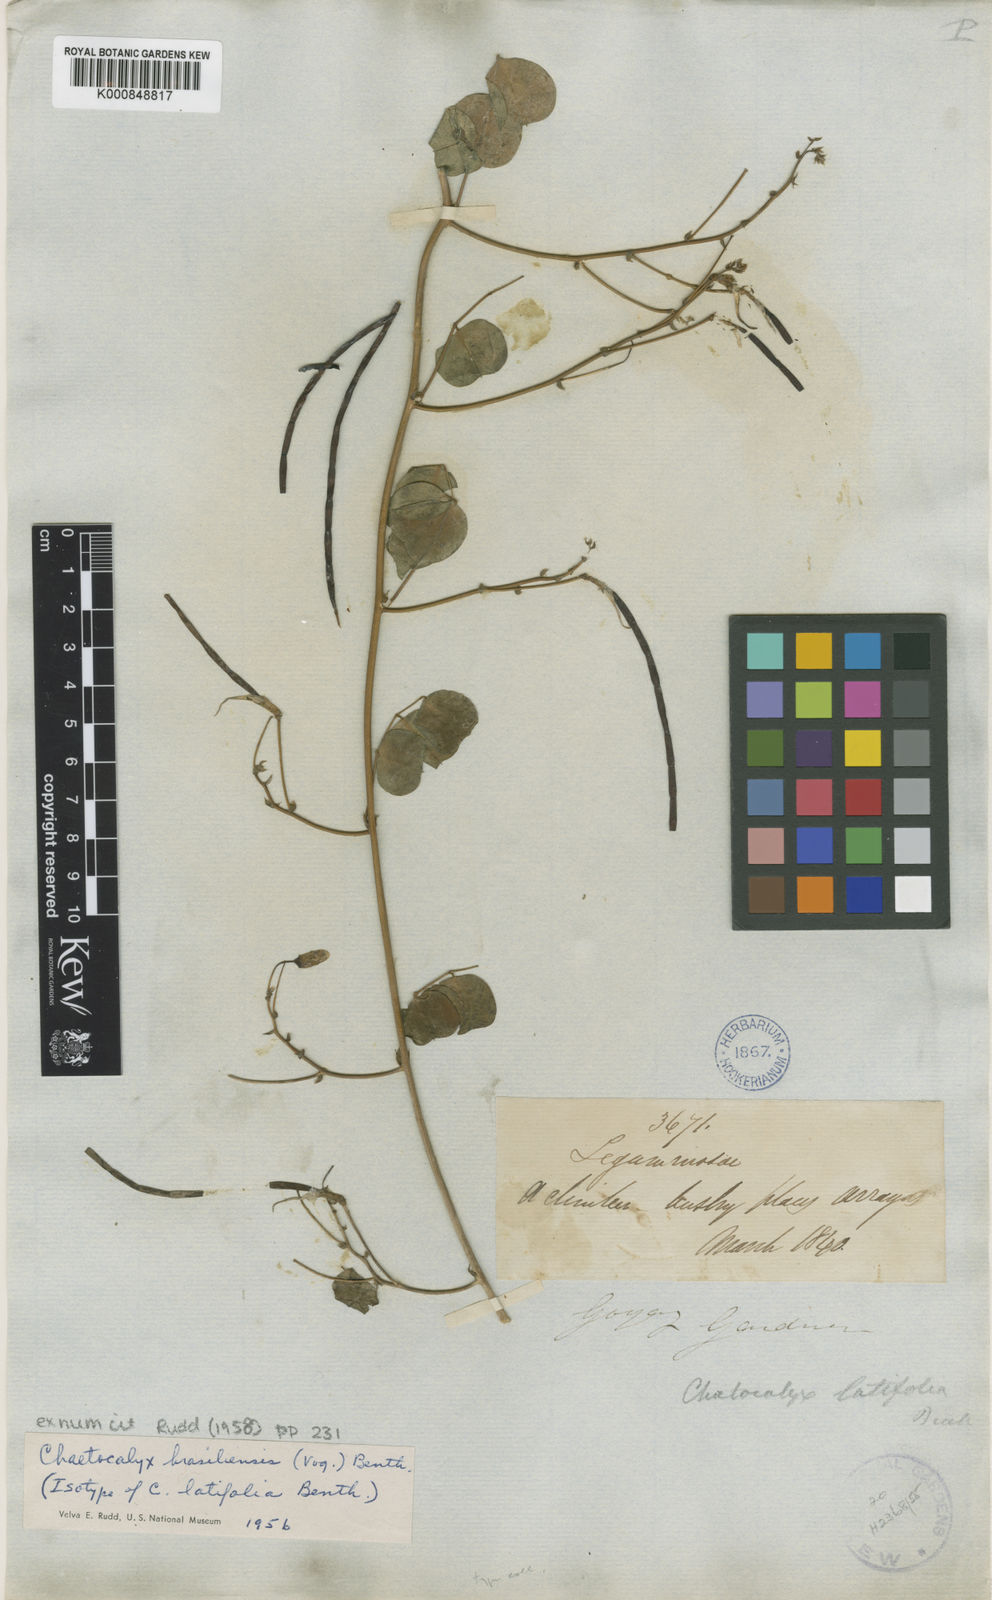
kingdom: Plantae
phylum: Tracheophyta
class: Magnoliopsida
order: Fabales
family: Fabaceae
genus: Nissolia
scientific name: Nissolia brasiliensis
